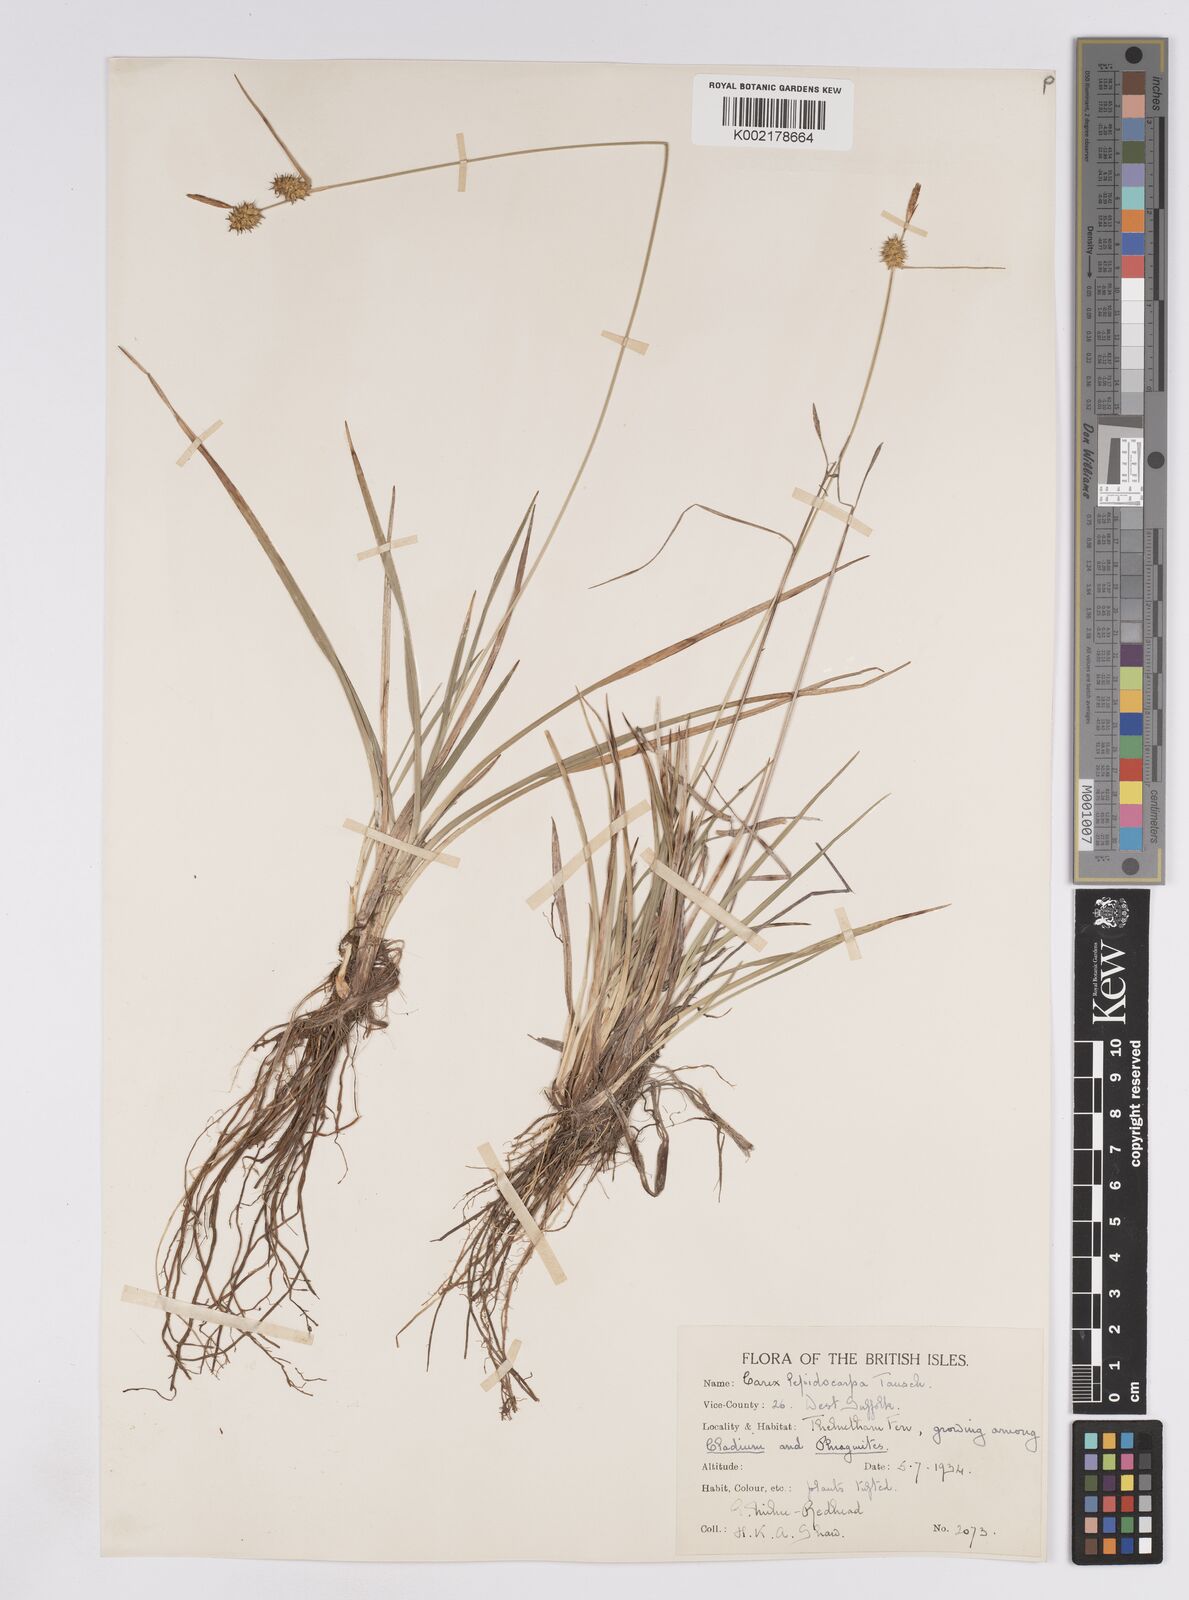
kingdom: Plantae
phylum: Tracheophyta
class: Liliopsida
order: Poales
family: Cyperaceae
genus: Carex
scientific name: Carex lepidocarpa
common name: Long-stalked yellow-sedge
